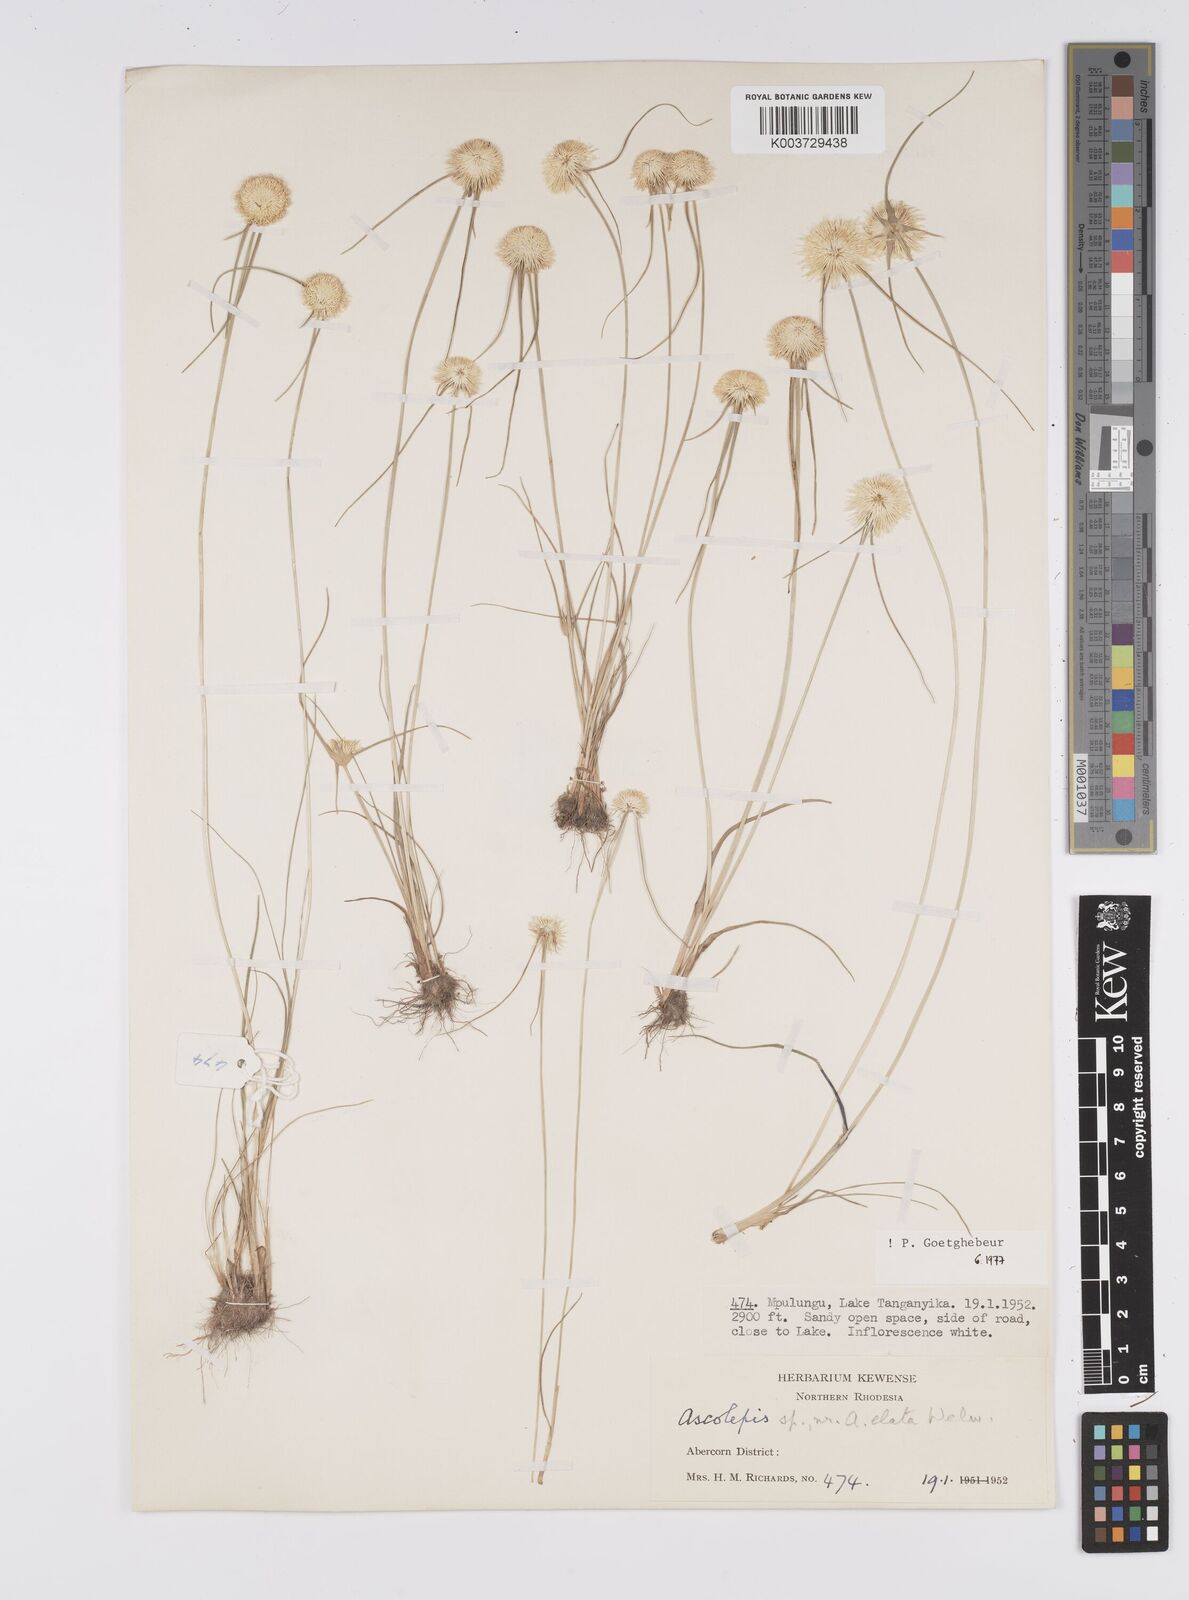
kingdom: Plantae
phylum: Tracheophyta
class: Liliopsida
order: Poales
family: Cyperaceae
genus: Cyperus
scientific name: Cyperus
